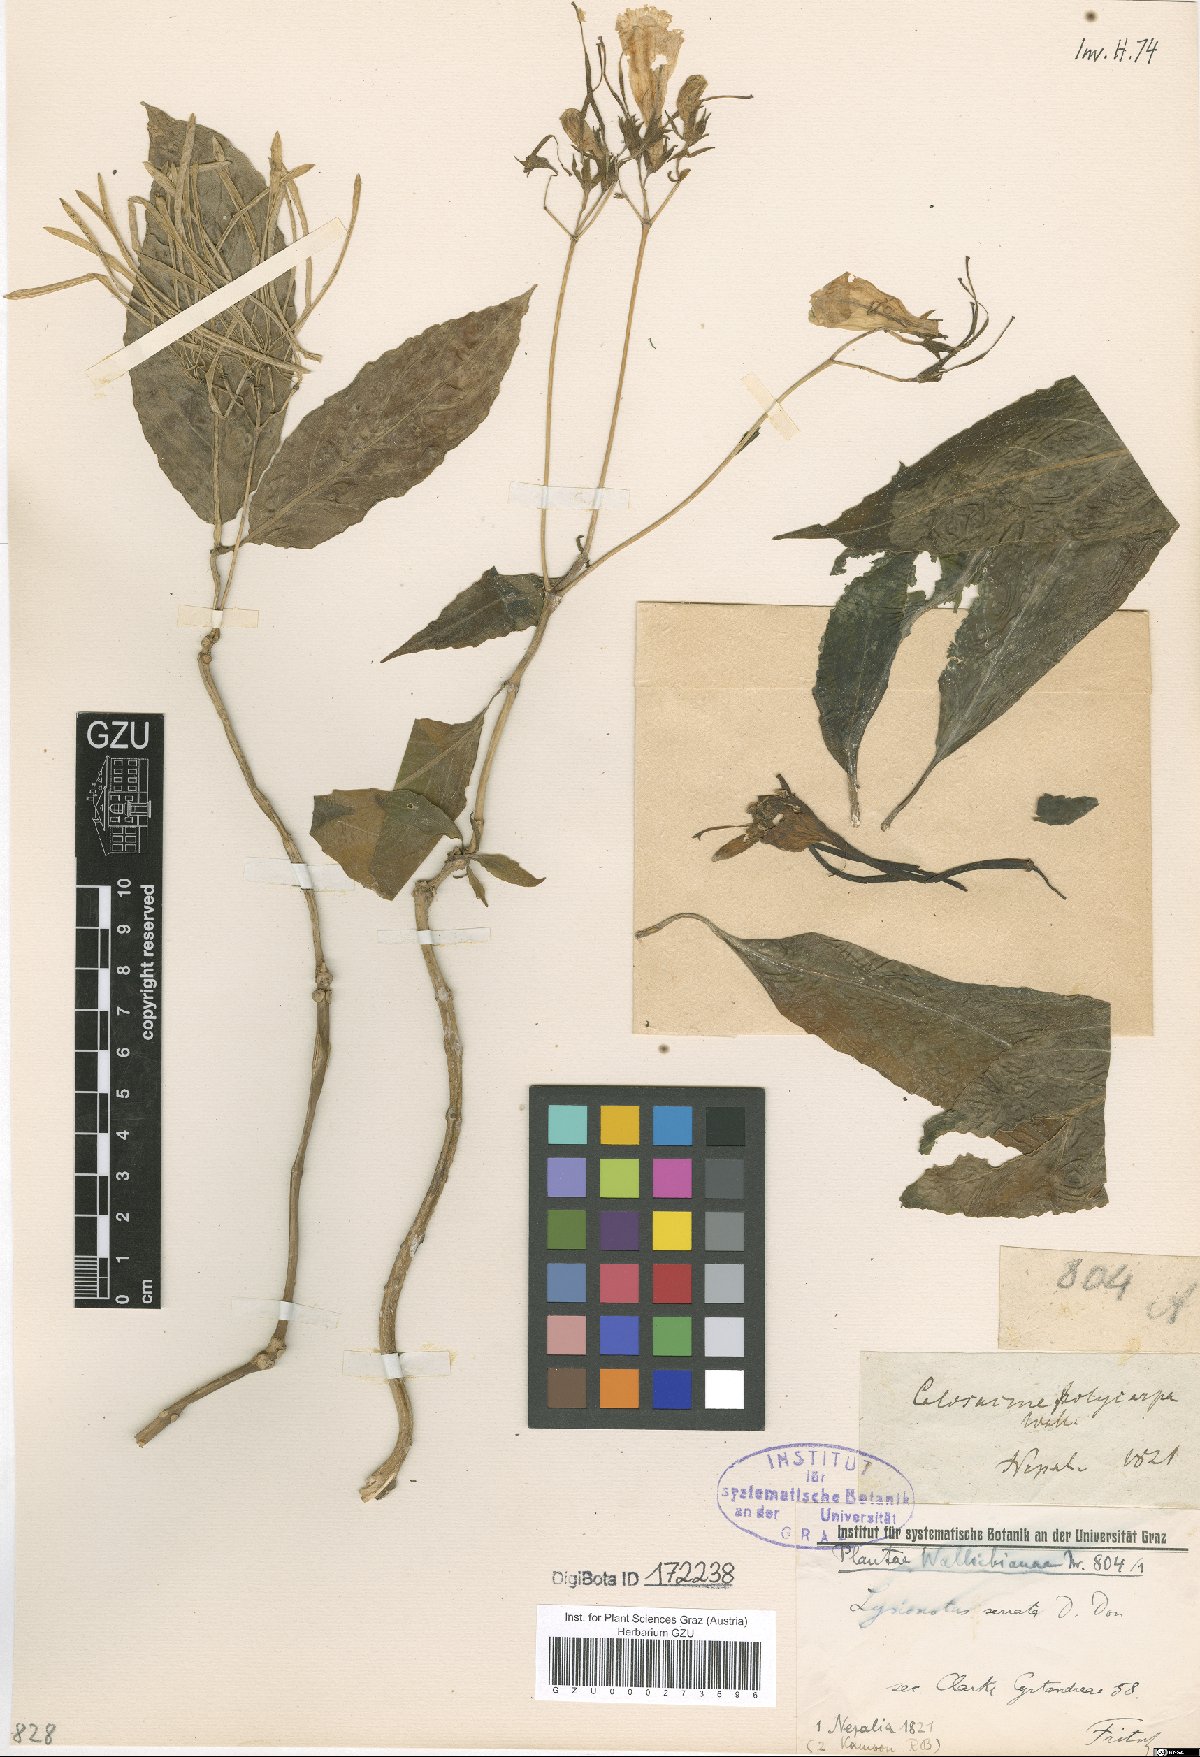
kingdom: Plantae
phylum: Tracheophyta
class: Magnoliopsida
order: Lamiales
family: Gesneriaceae
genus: Lysionotus
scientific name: Lysionotus serratus
